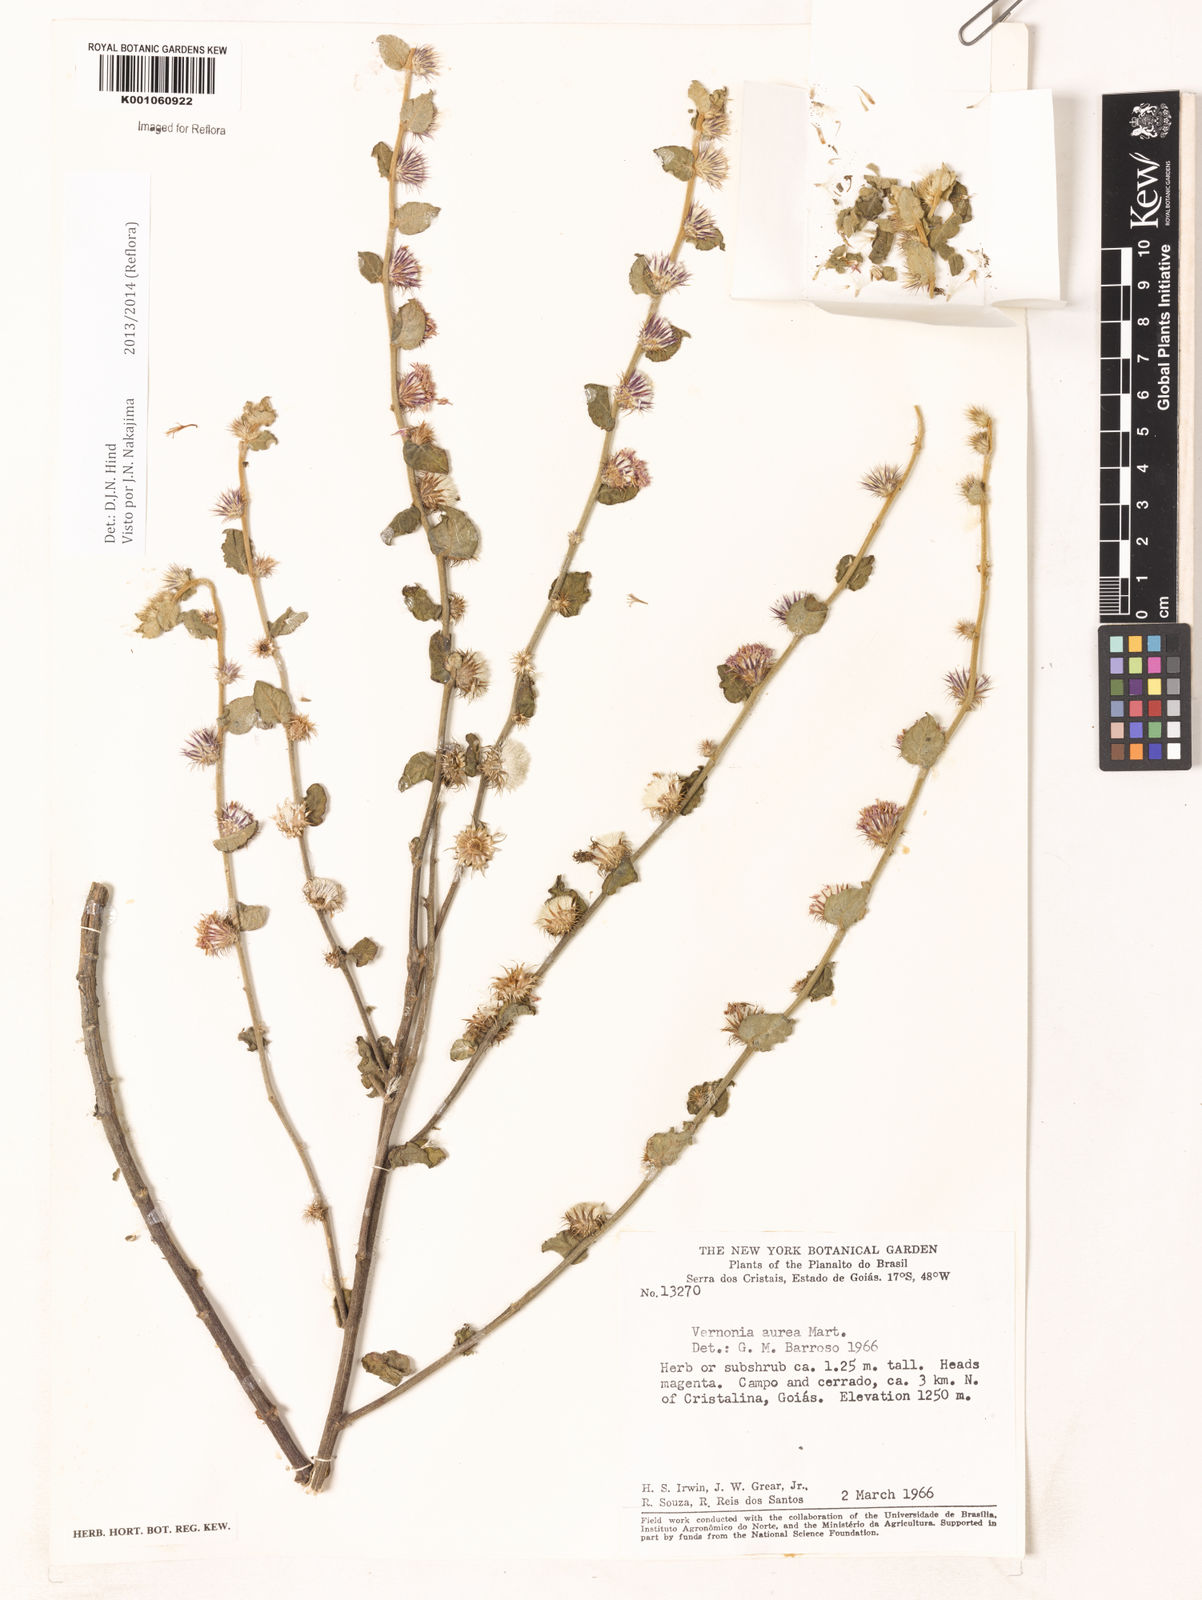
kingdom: Plantae
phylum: Tracheophyta
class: Magnoliopsida
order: Asterales
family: Asteraceae
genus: Lepidaploa
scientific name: Lepidaploa aurea
